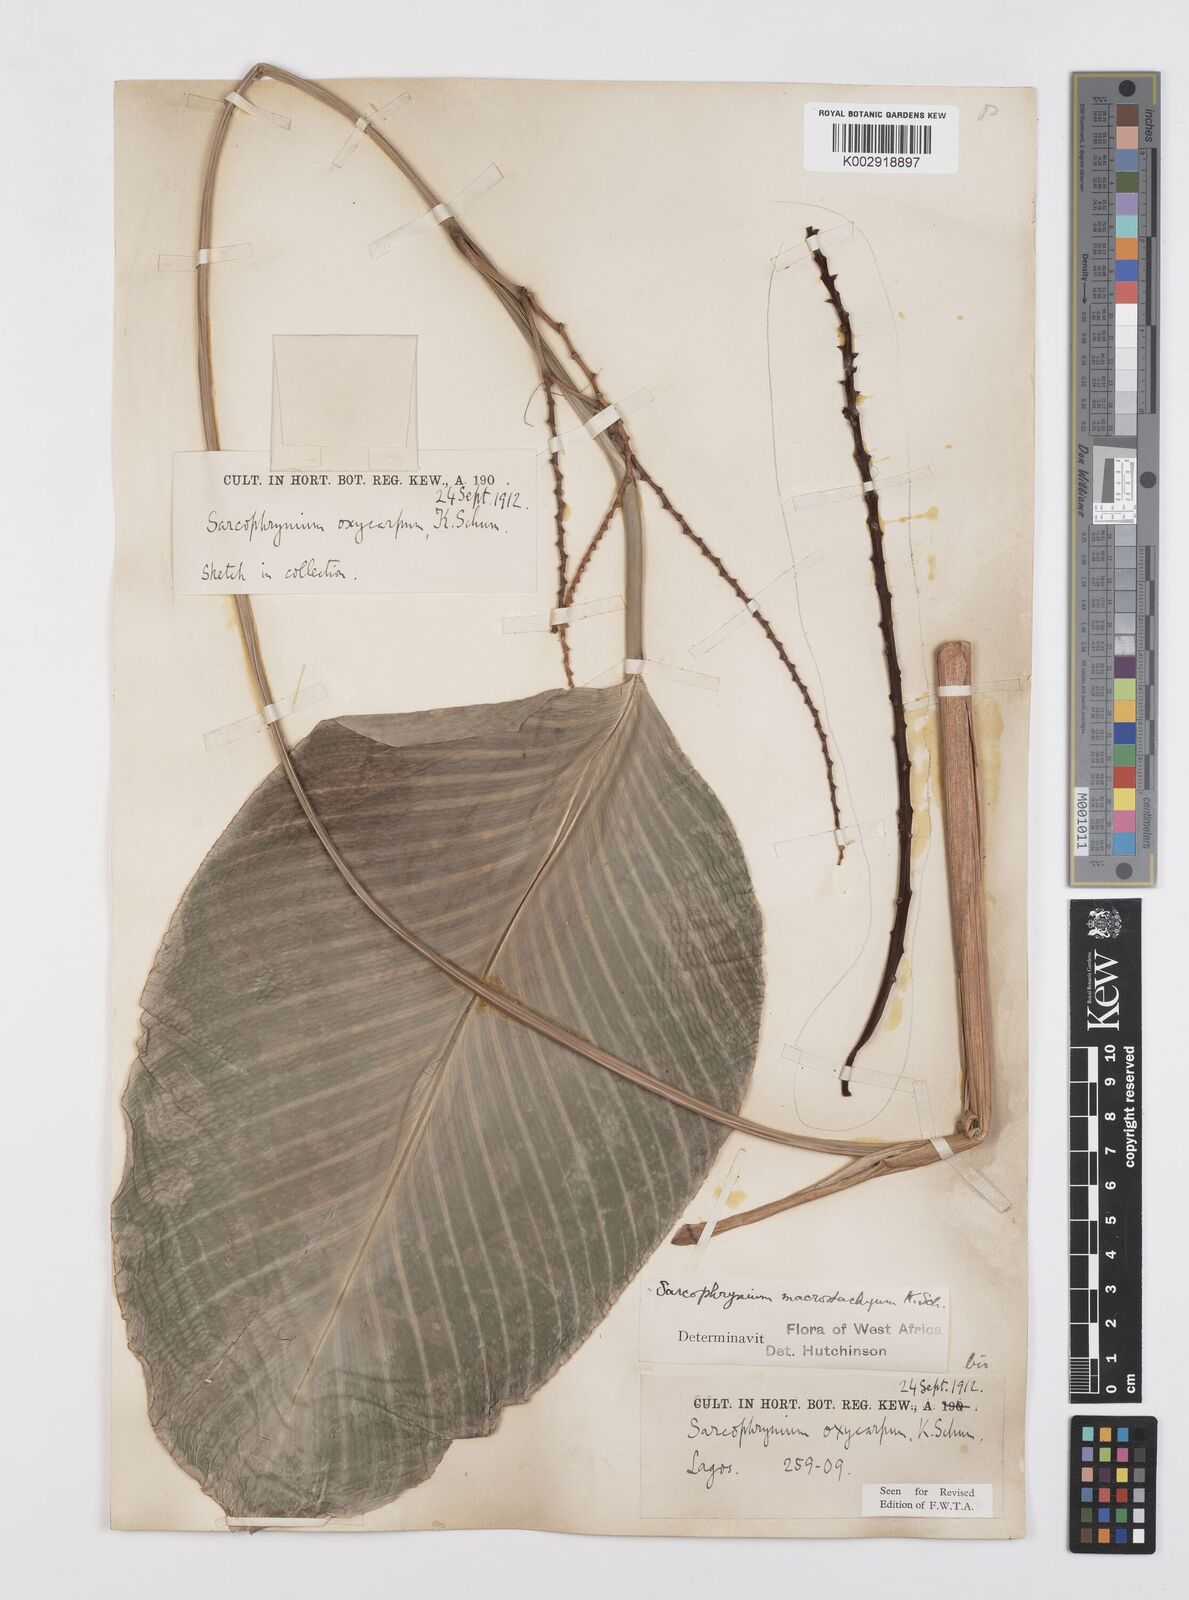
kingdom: Plantae
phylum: Tracheophyta
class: Liliopsida
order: Zingiberales
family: Marantaceae
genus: Megaphrynium
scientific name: Megaphrynium macrostachyum
